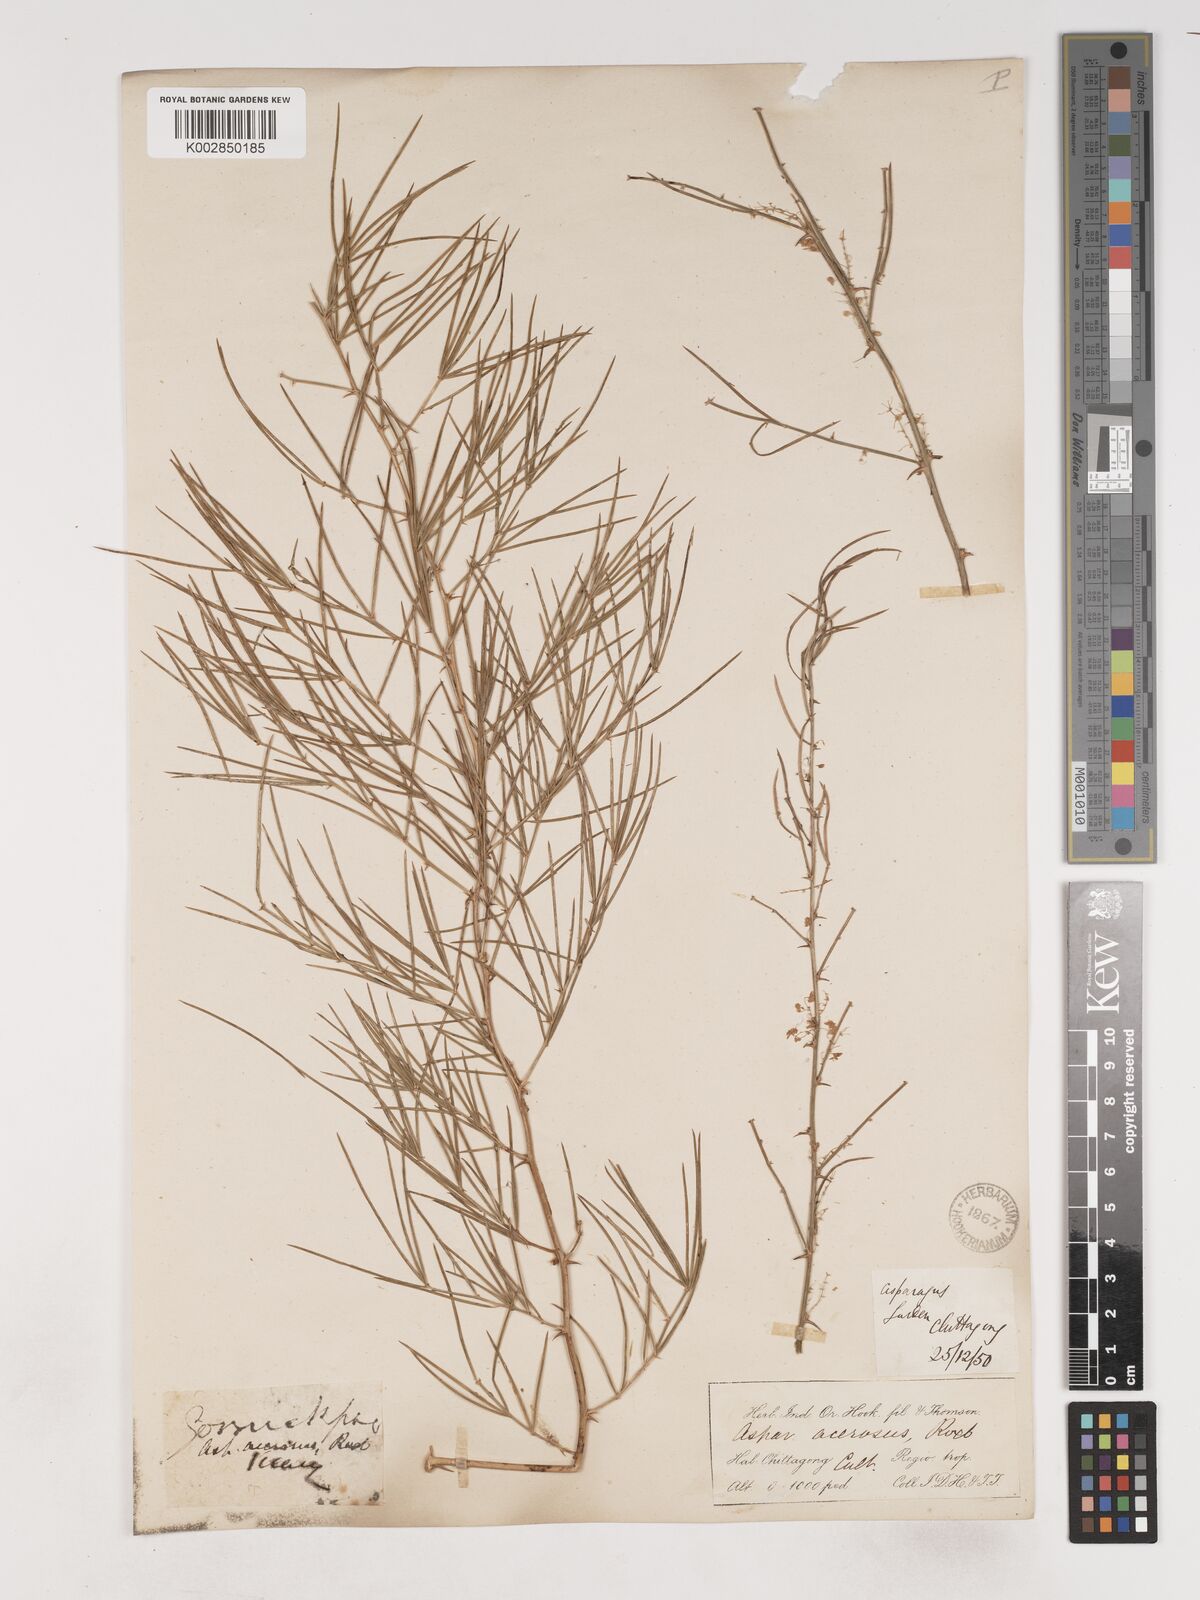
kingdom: Plantae
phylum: Tracheophyta
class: Liliopsida
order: Asparagales
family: Asparagaceae
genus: Asparagus
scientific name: Asparagus racemosus
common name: Asparagus-fern
